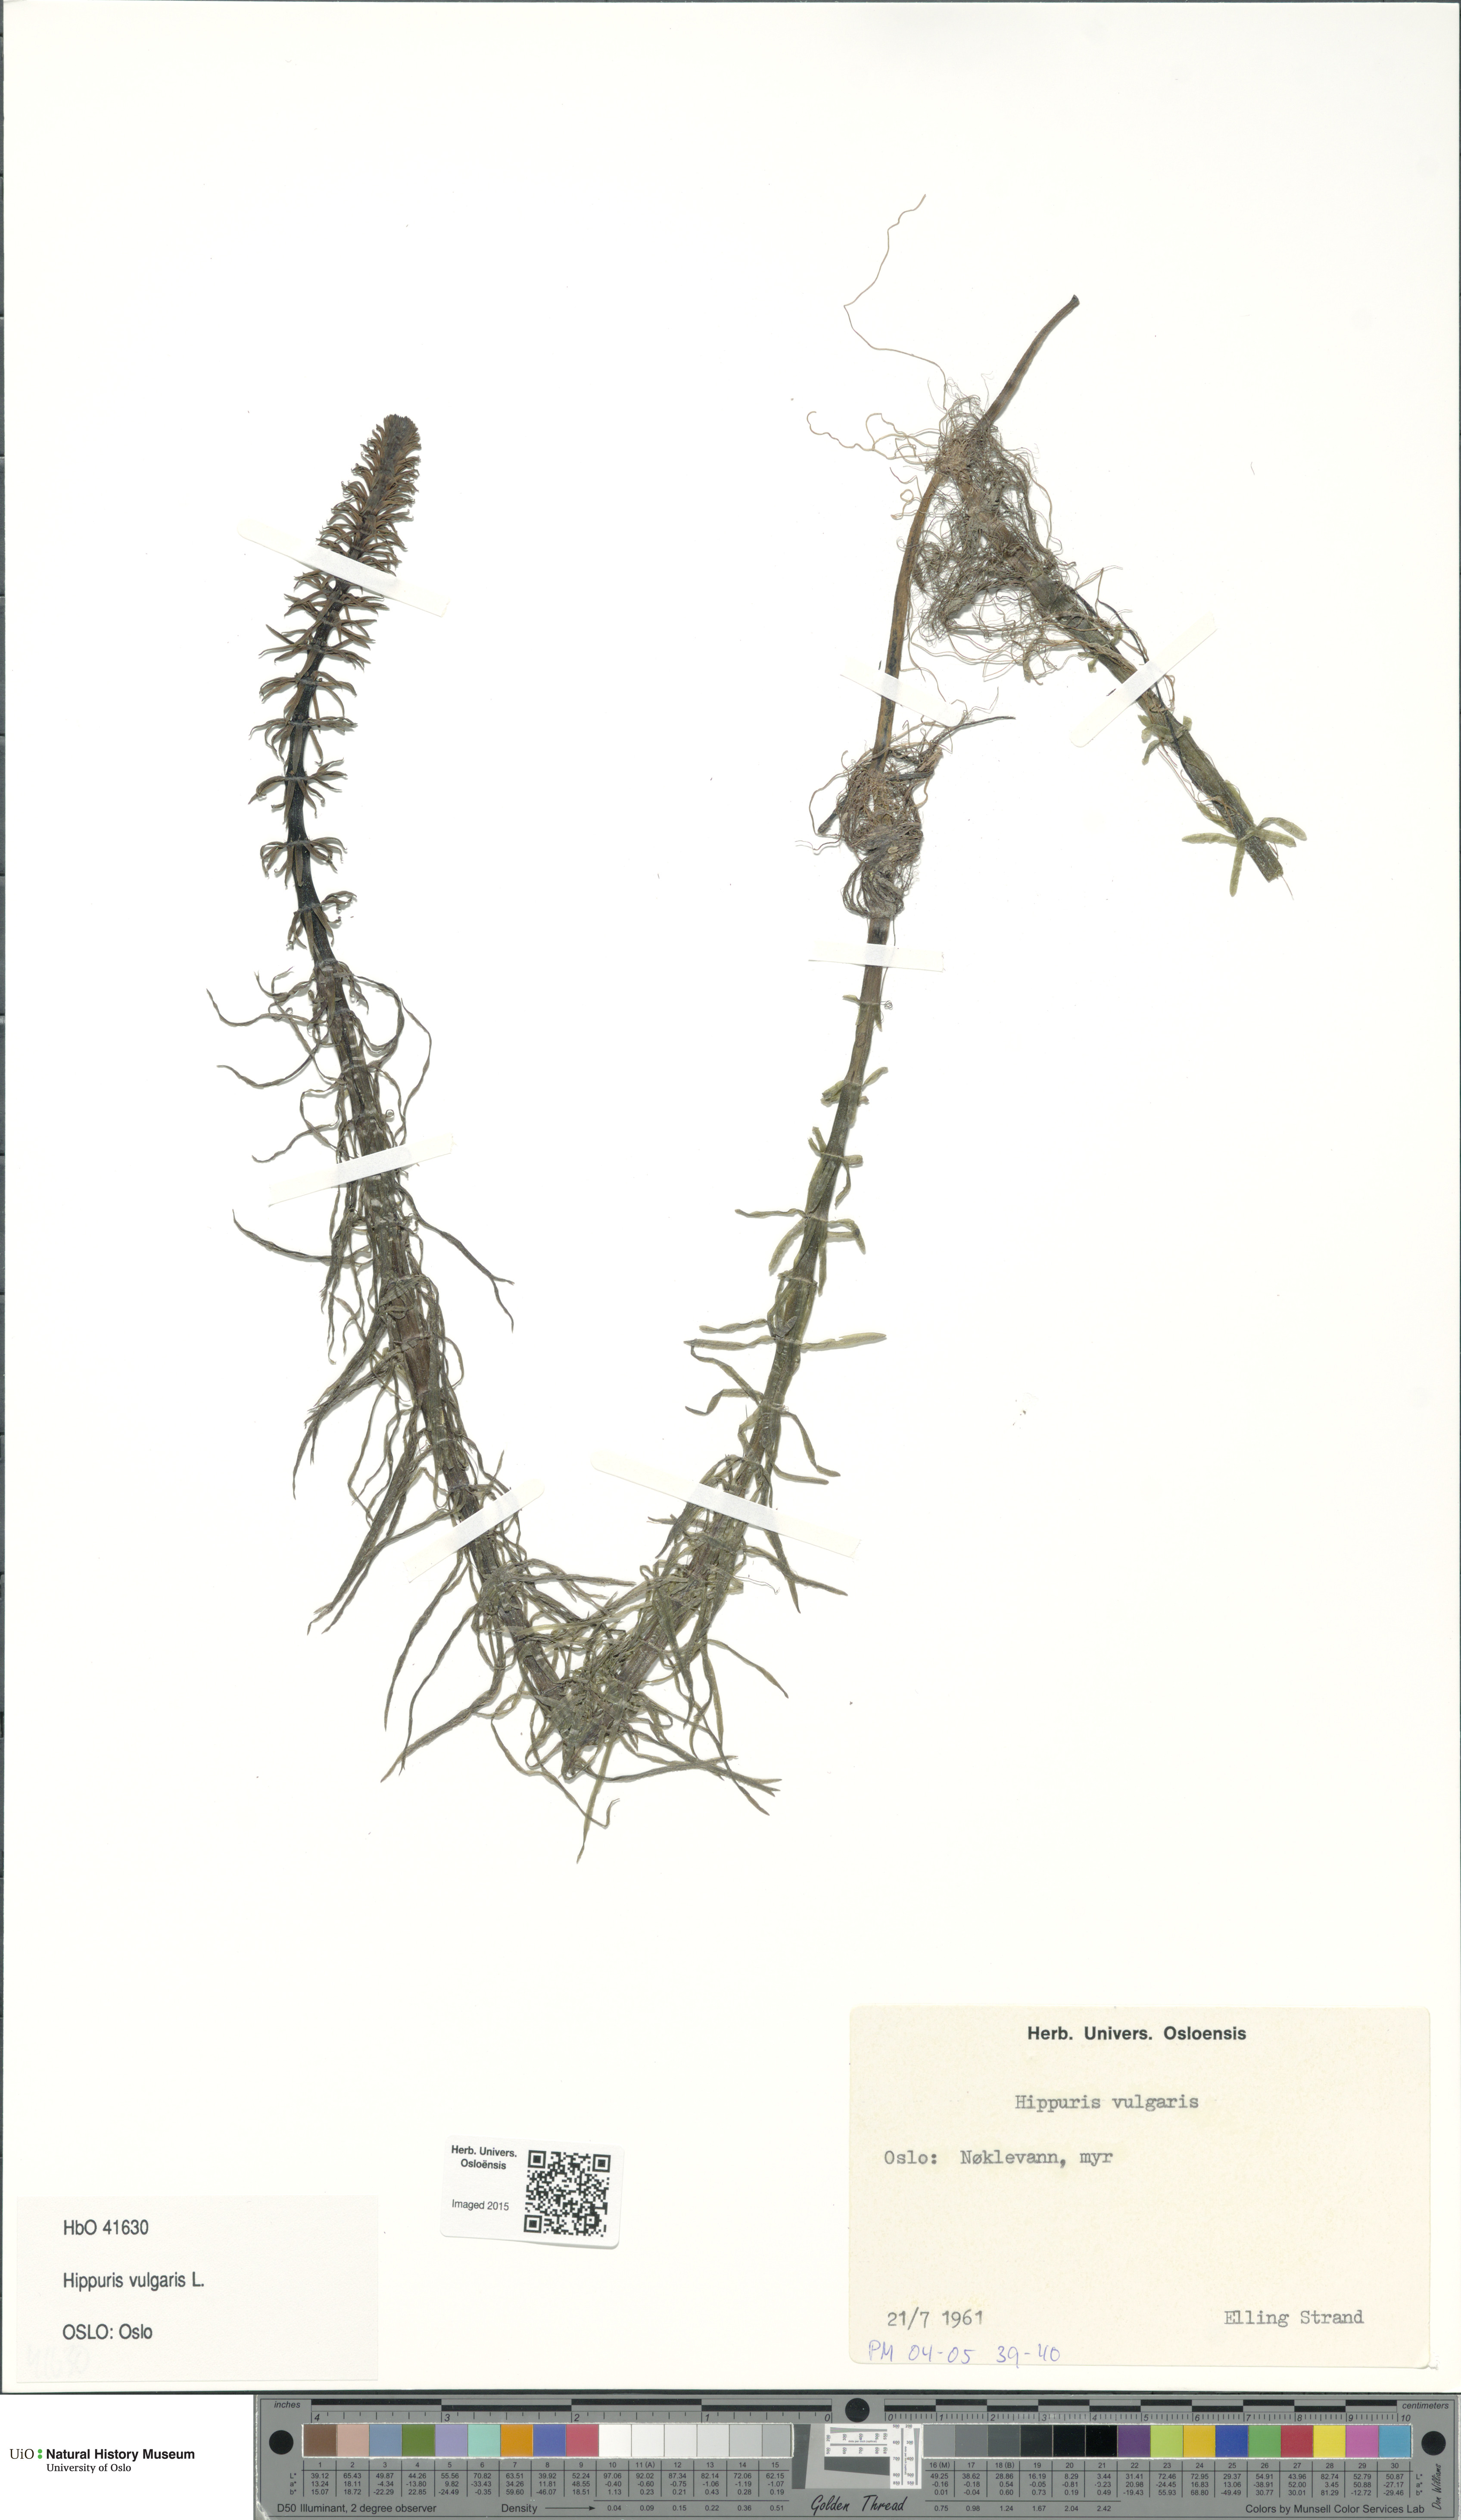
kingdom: Plantae
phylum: Tracheophyta
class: Magnoliopsida
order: Lamiales
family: Plantaginaceae
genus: Hippuris
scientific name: Hippuris vulgaris
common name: Mare's-tail
